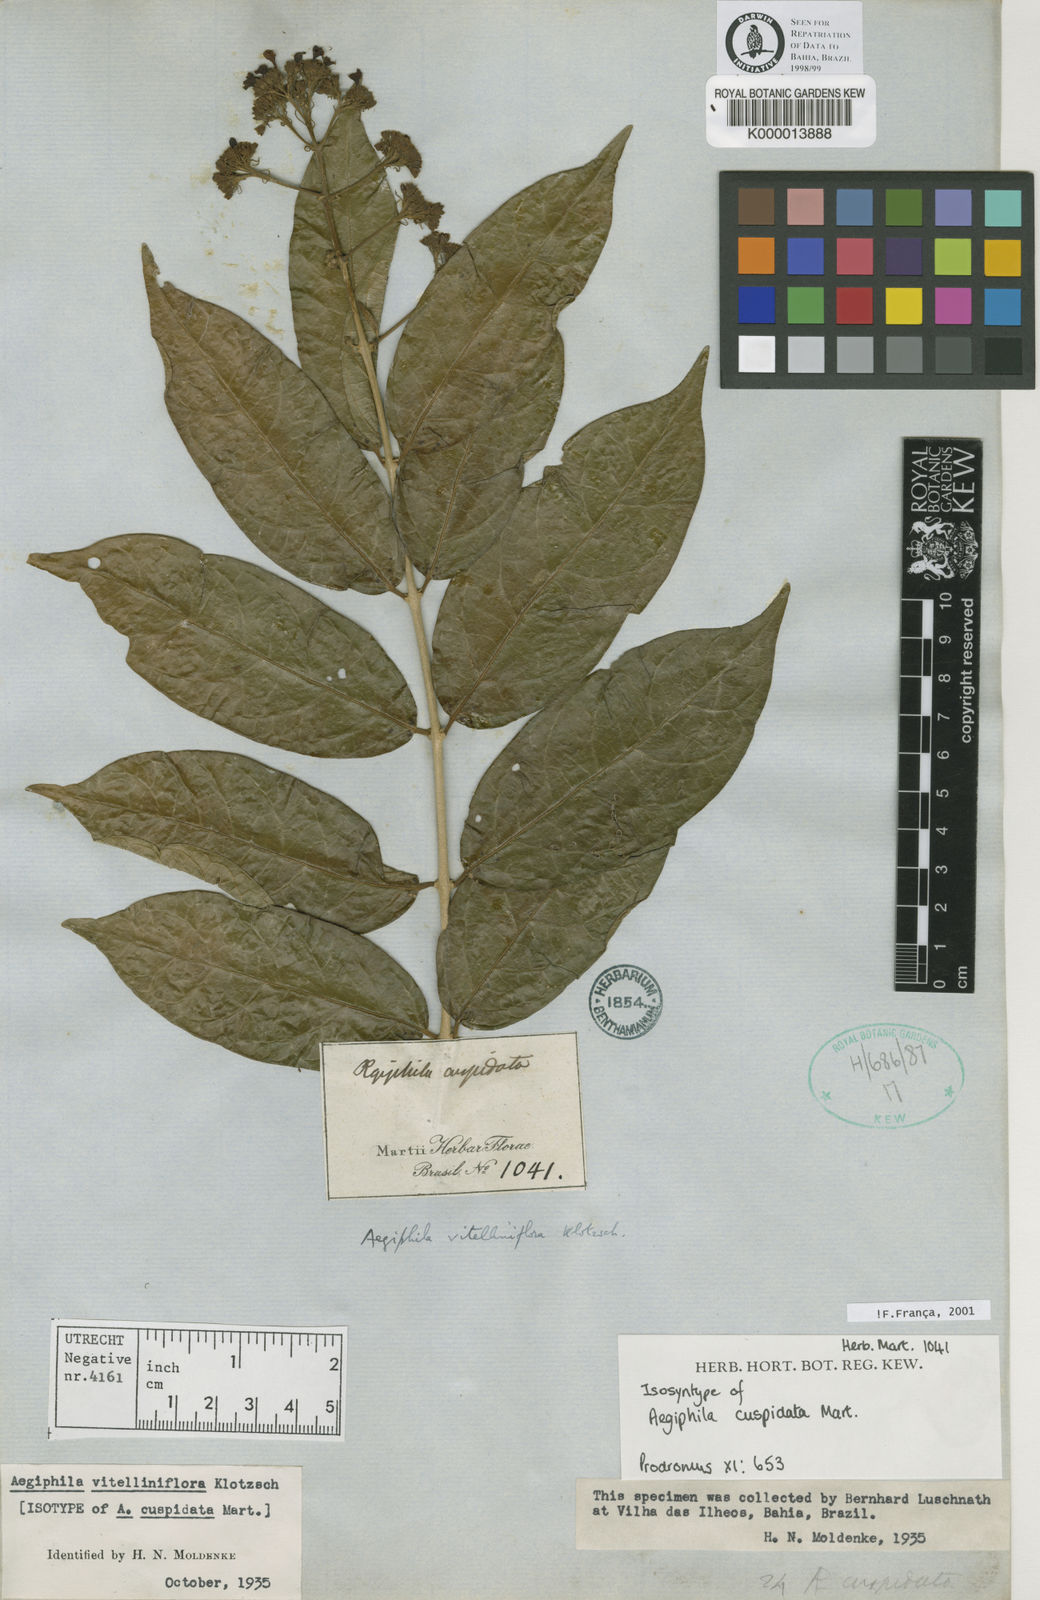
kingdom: Plantae
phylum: Tracheophyta
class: Magnoliopsida
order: Lamiales
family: Lamiaceae
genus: Aegiphila
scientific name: Aegiphila vitelliniflora
